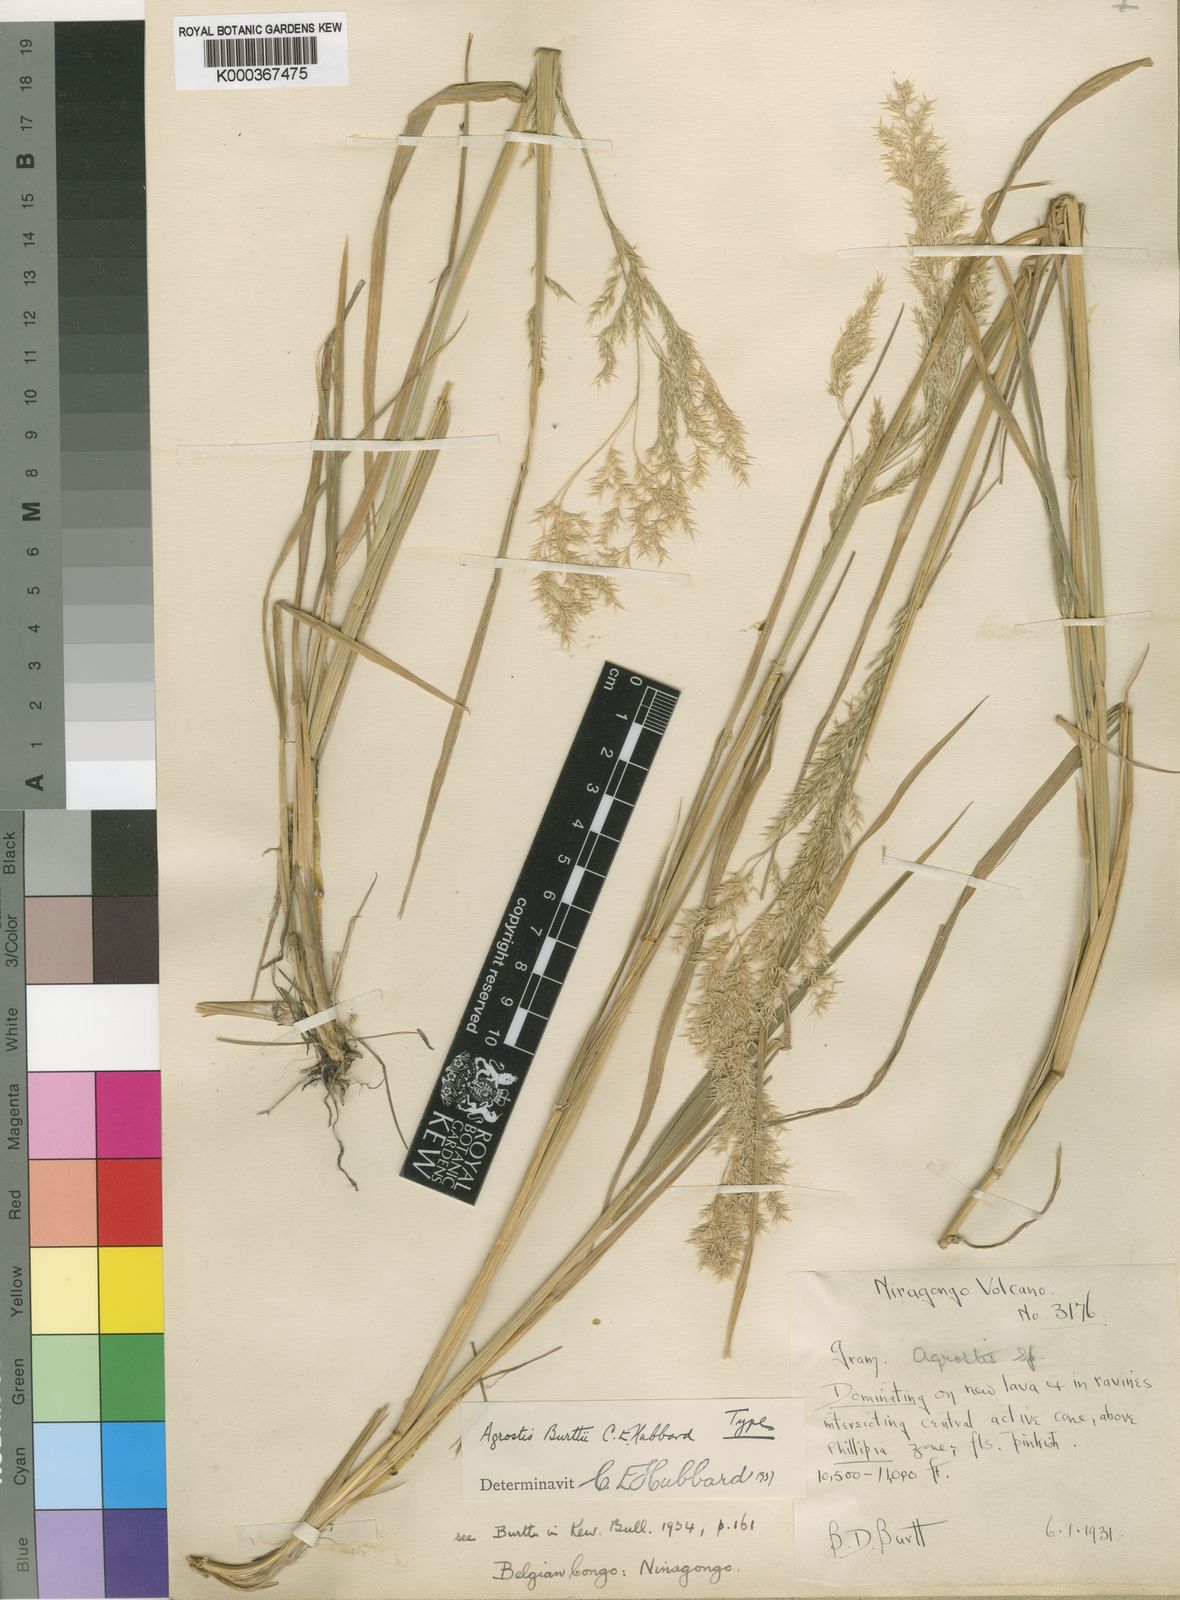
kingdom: Plantae
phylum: Tracheophyta
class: Liliopsida
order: Poales
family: Poaceae
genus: Agrostis
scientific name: Agrostis kilimandscharica
